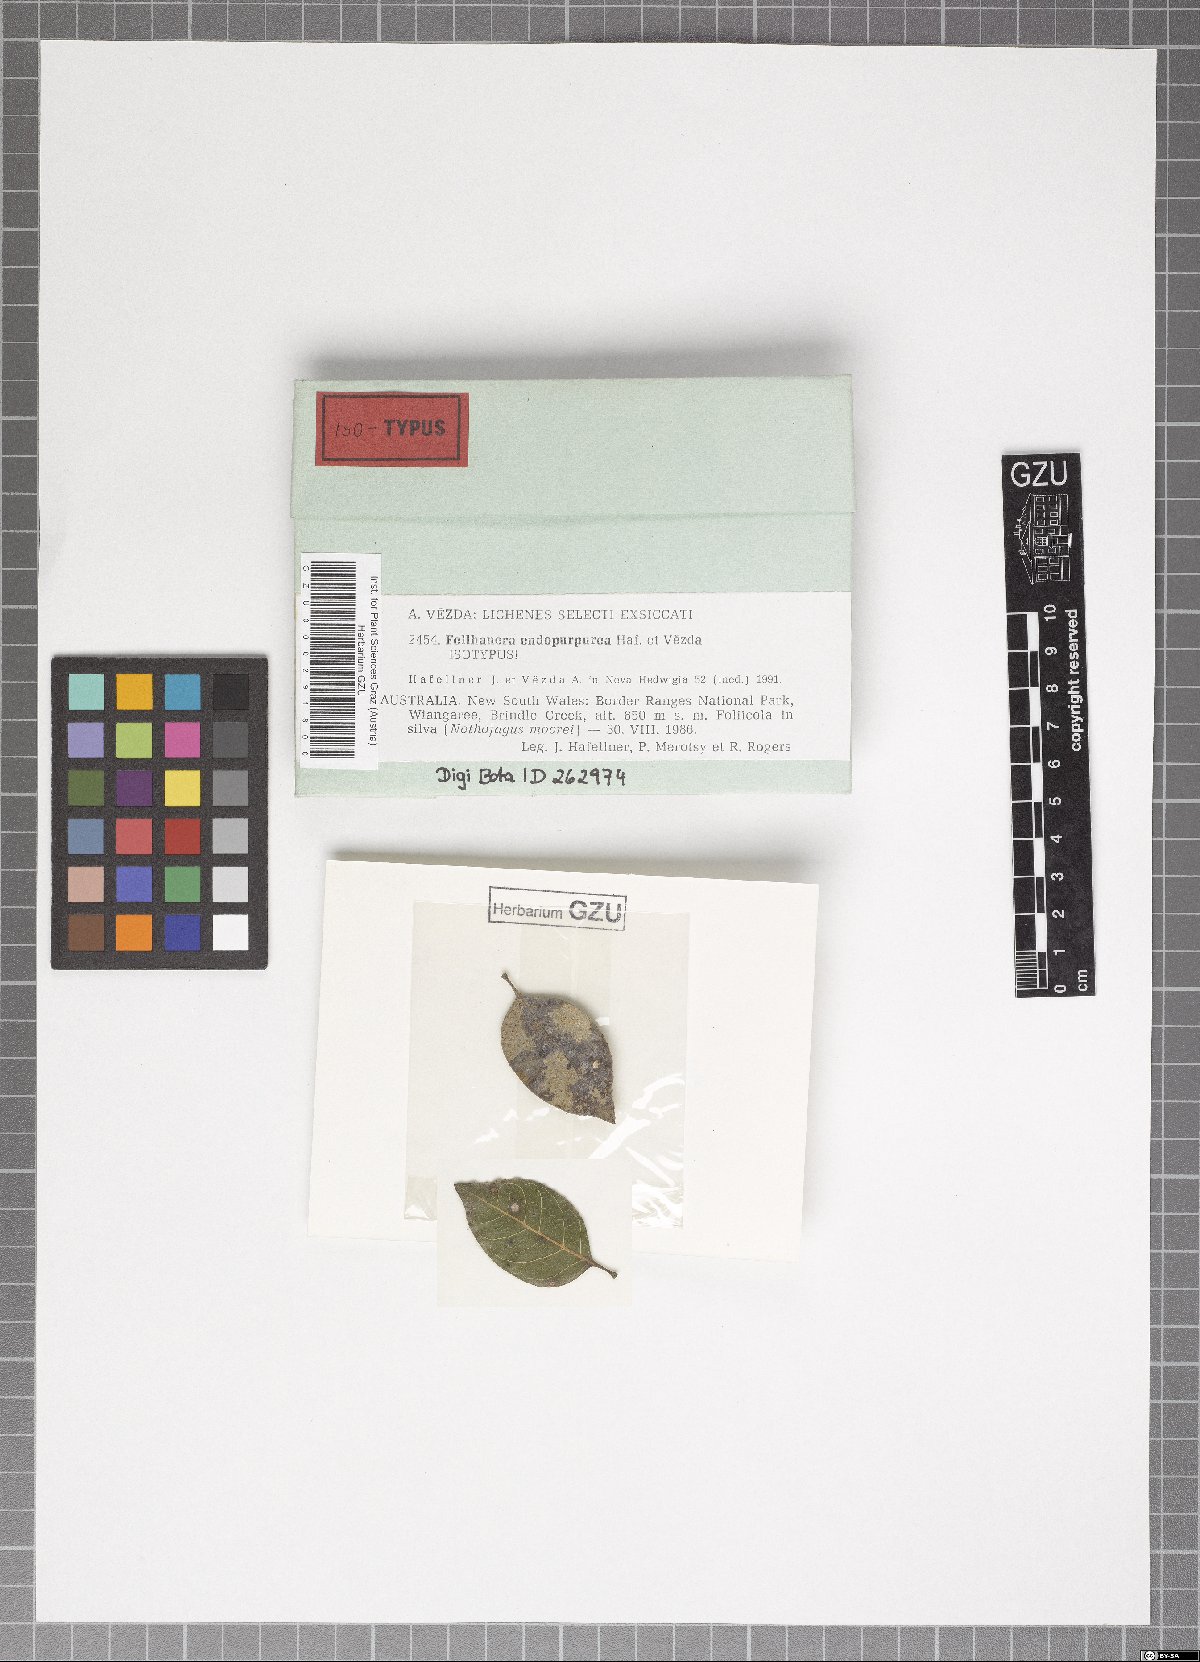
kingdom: Fungi
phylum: Ascomycota
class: Lecanoromycetes
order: Lecanorales
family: Byssolomataceae
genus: Fellhanera
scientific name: Fellhanera endopurpurea
